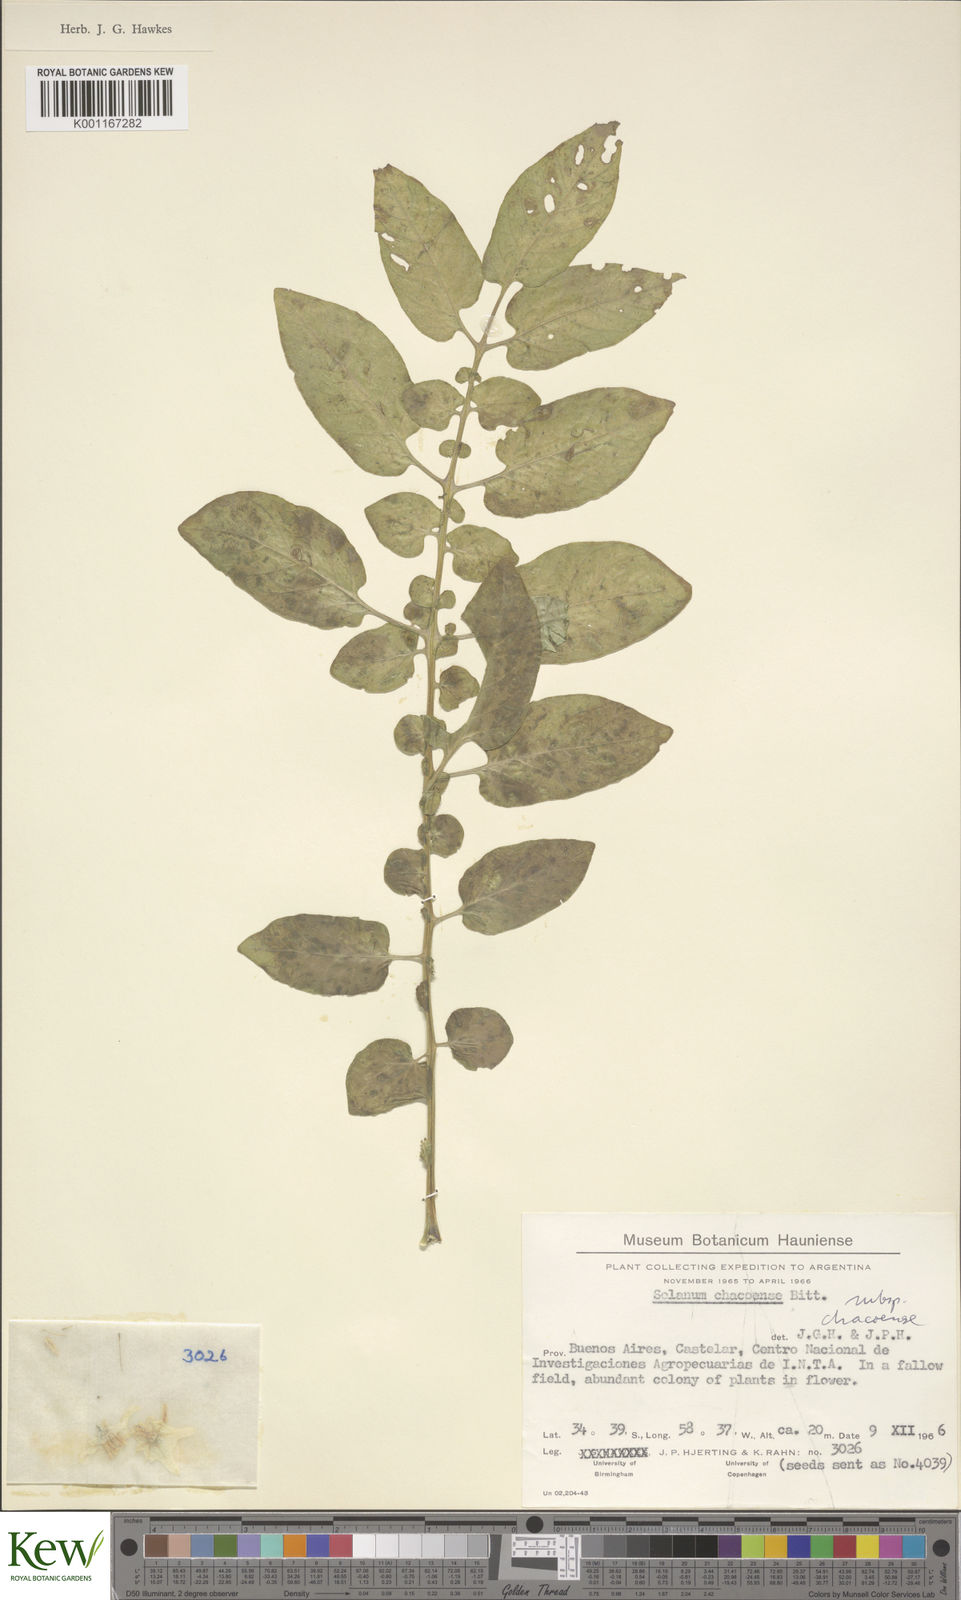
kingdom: Plantae
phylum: Tracheophyta
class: Magnoliopsida
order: Solanales
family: Solanaceae
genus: Solanum
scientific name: Solanum
